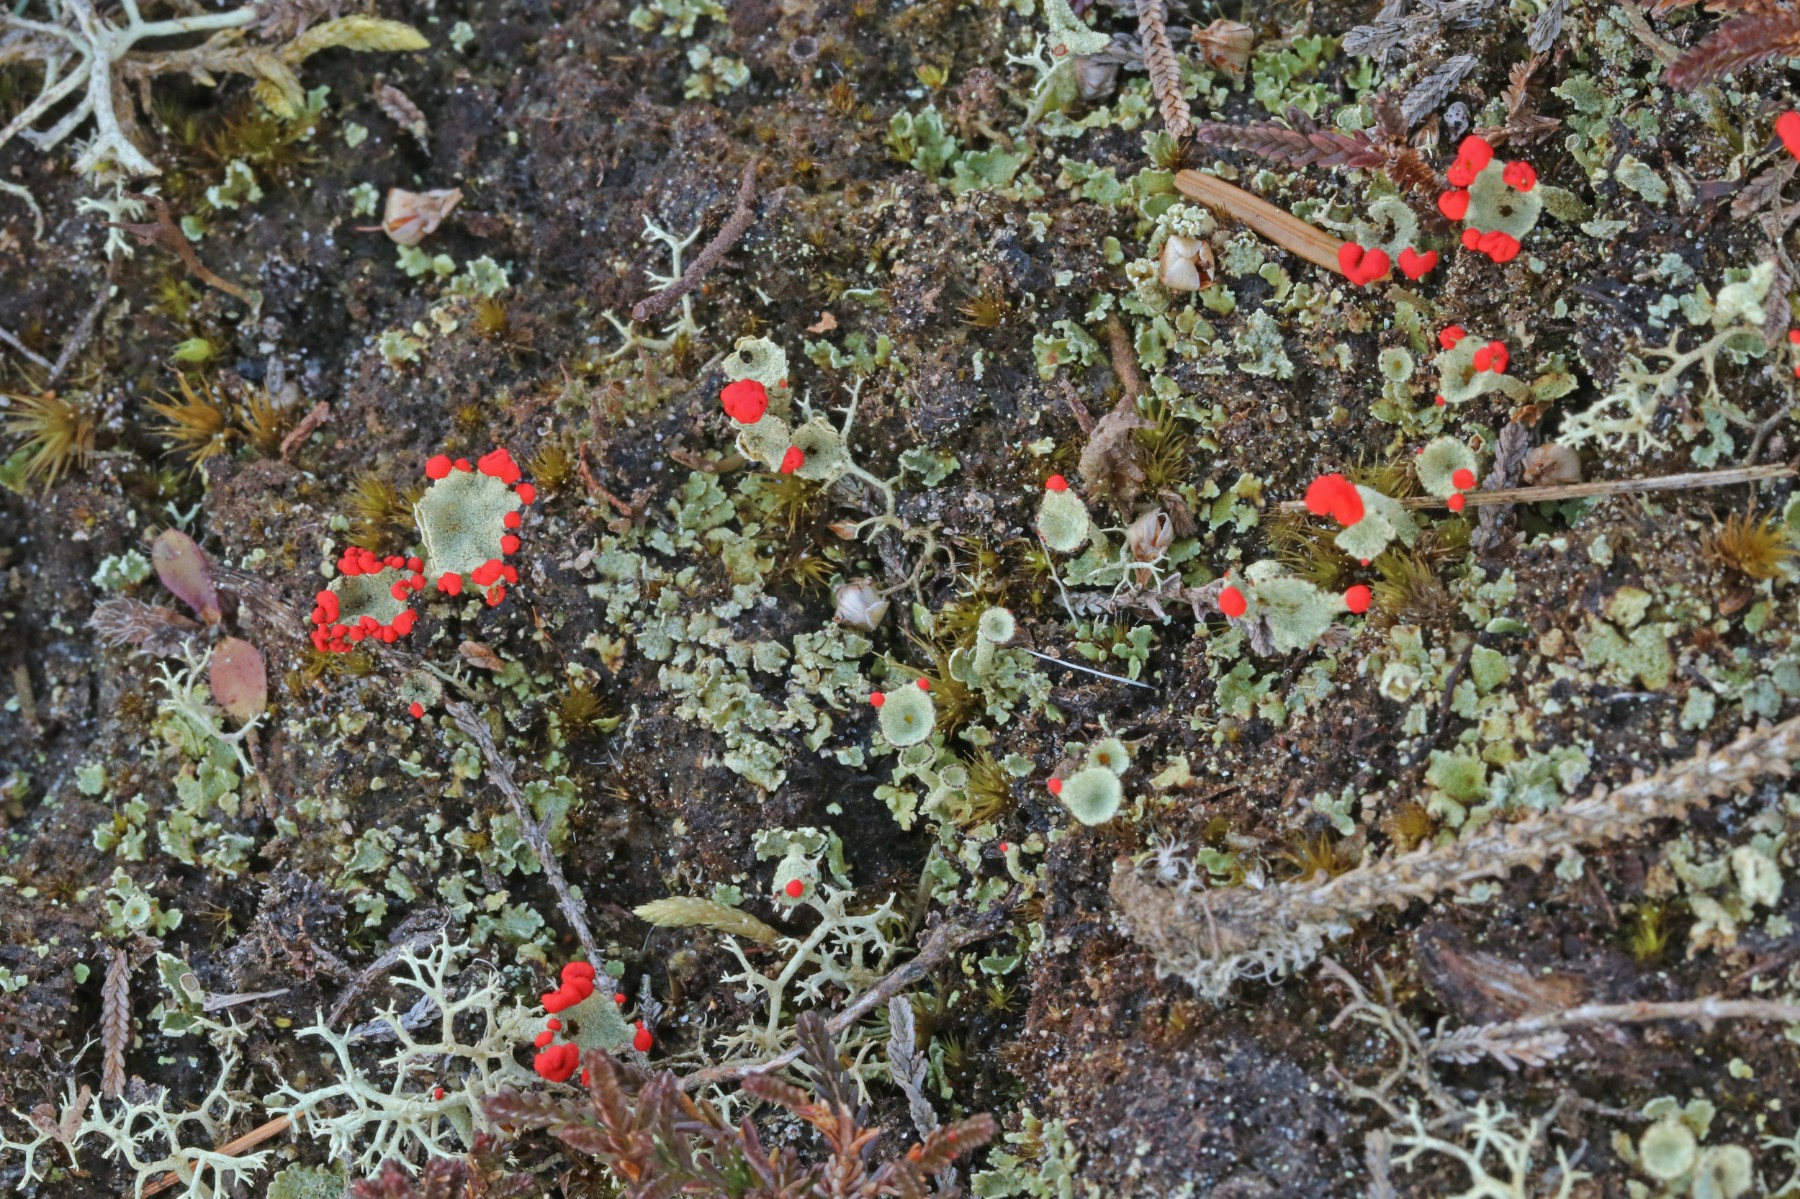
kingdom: Fungi
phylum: Ascomycota
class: Lecanoromycetes
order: Lecanorales
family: Cladoniaceae
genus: Cladonia
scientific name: Cladonia diversa
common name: rød bægerlav
